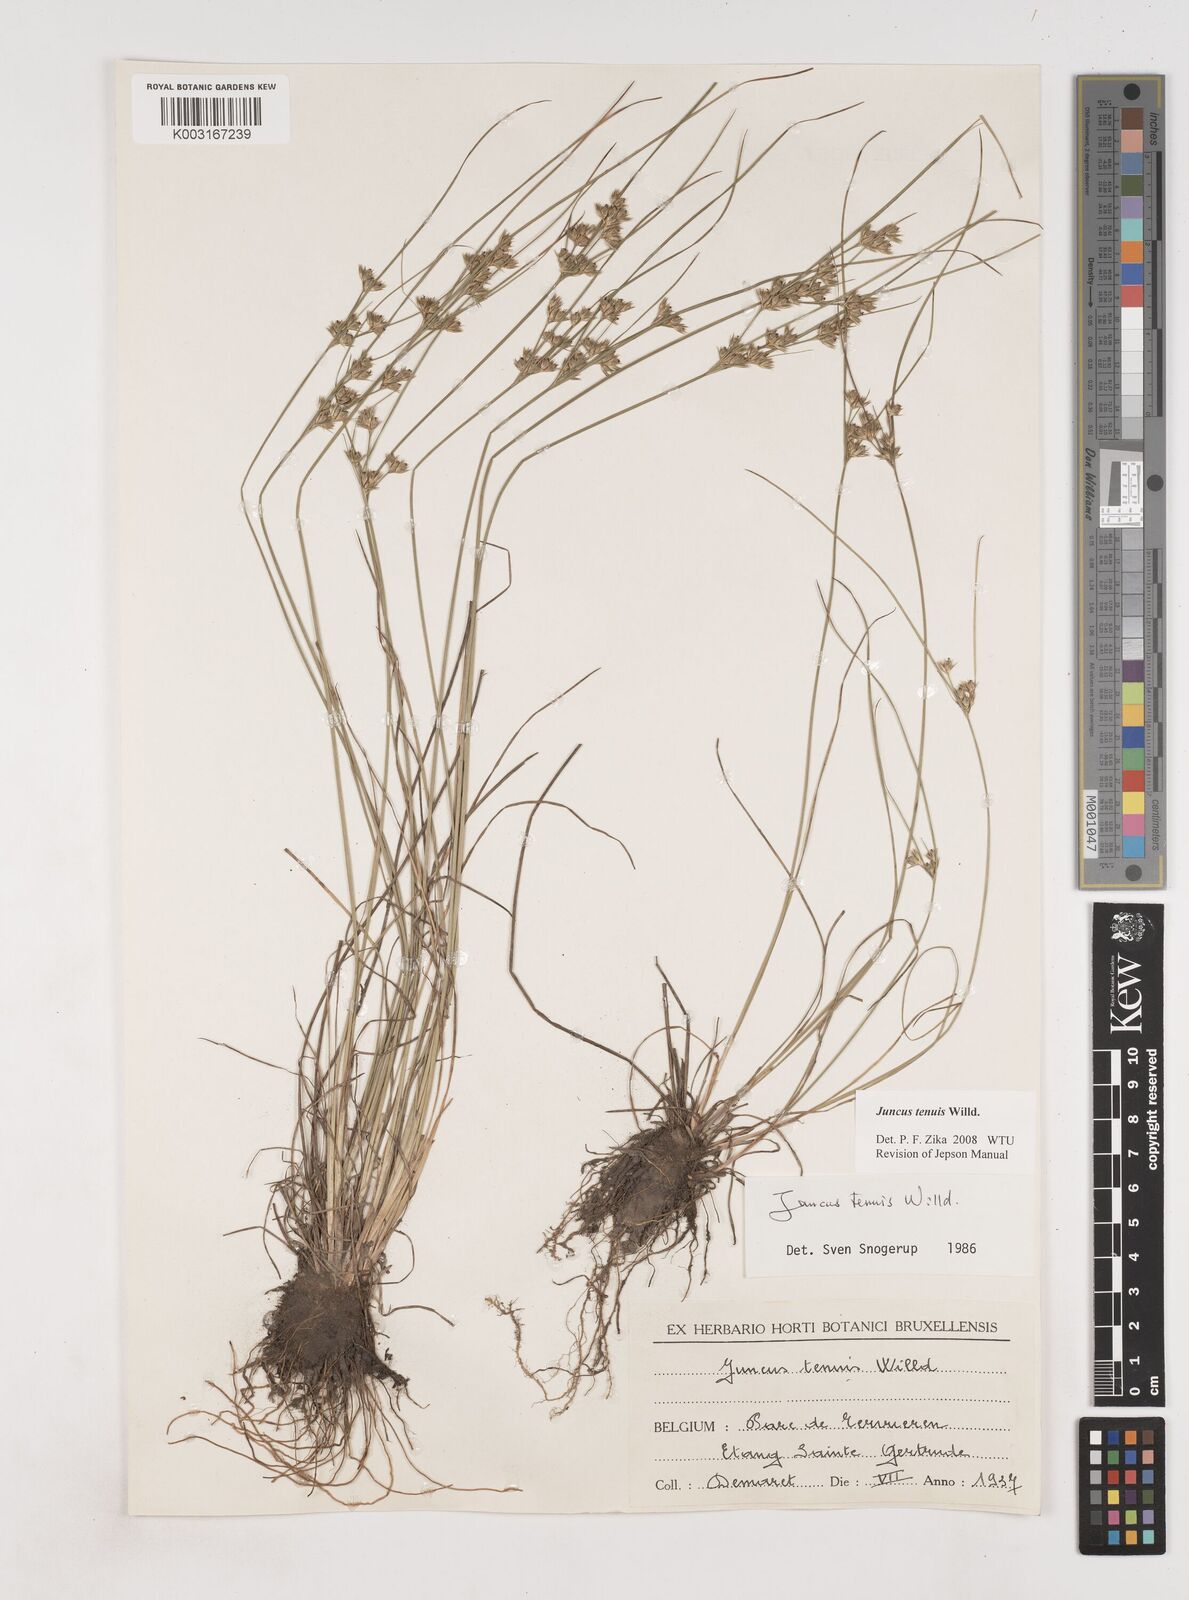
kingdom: Plantae
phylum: Tracheophyta
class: Liliopsida
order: Poales
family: Juncaceae
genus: Juncus
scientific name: Juncus tenuis
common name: Slender rush
